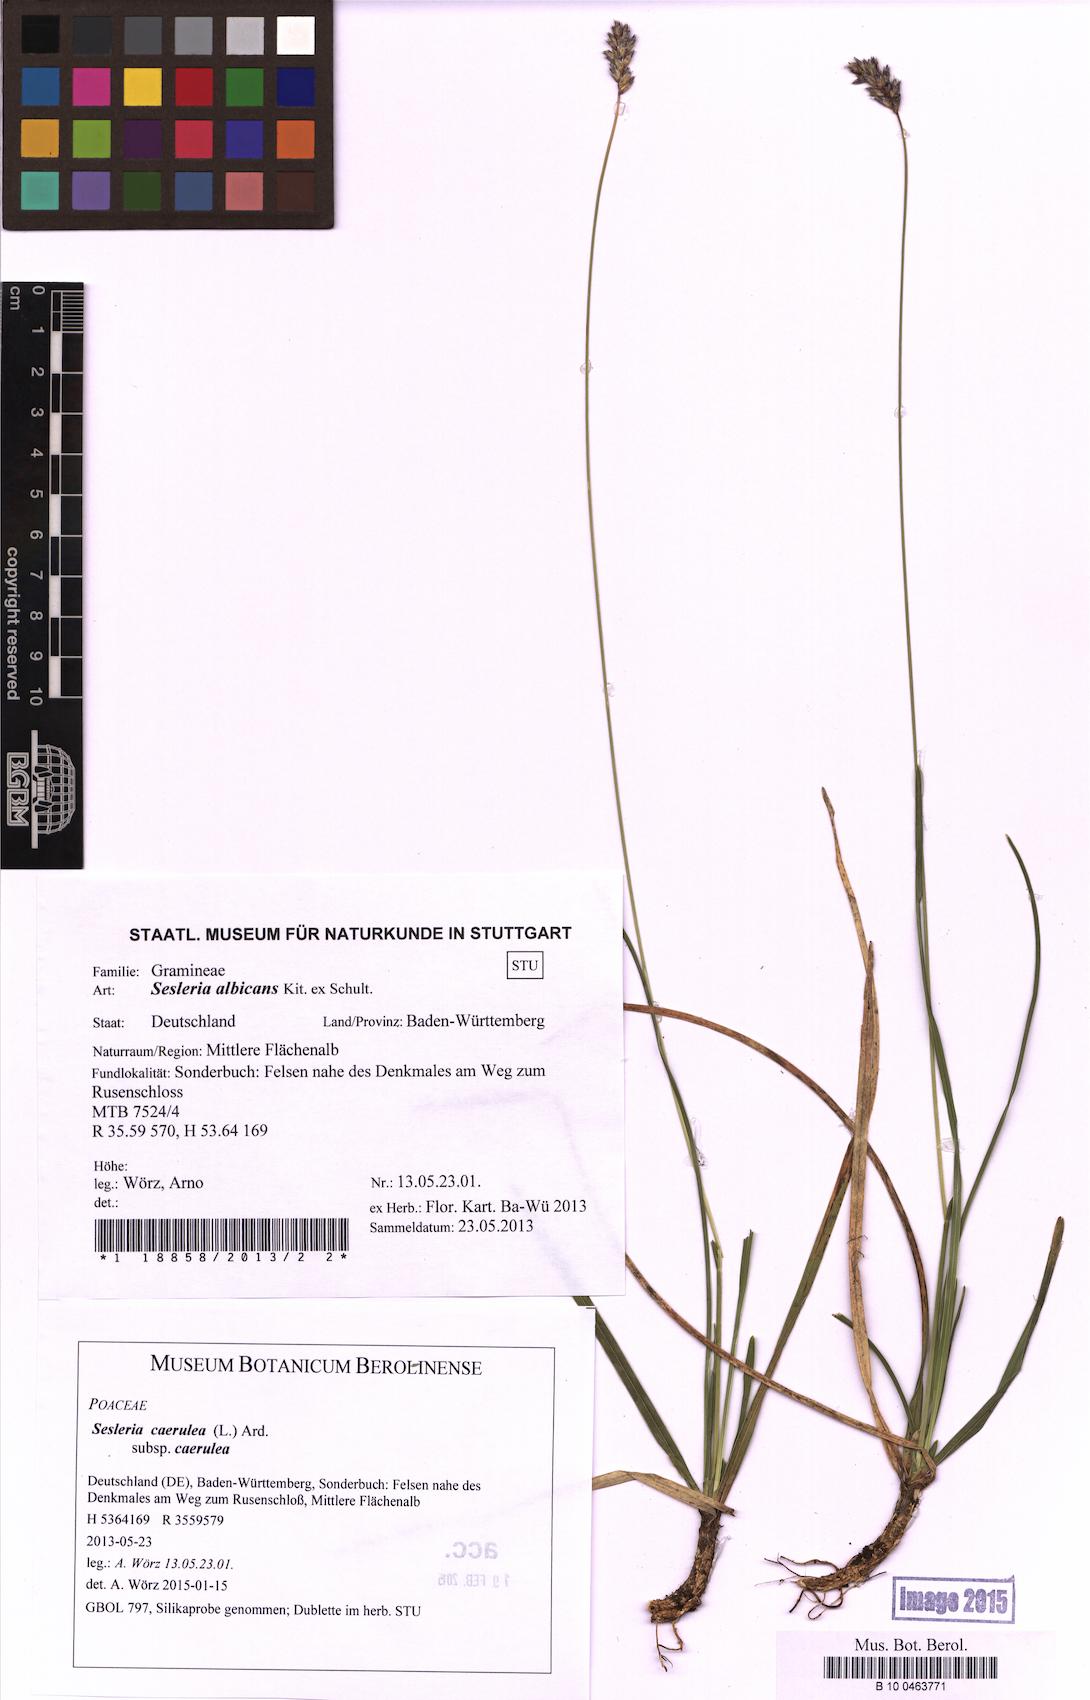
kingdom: Plantae
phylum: Tracheophyta
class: Liliopsida
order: Poales
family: Poaceae
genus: Sesleria
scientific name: Sesleria caerulea
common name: Blue moor-grass
